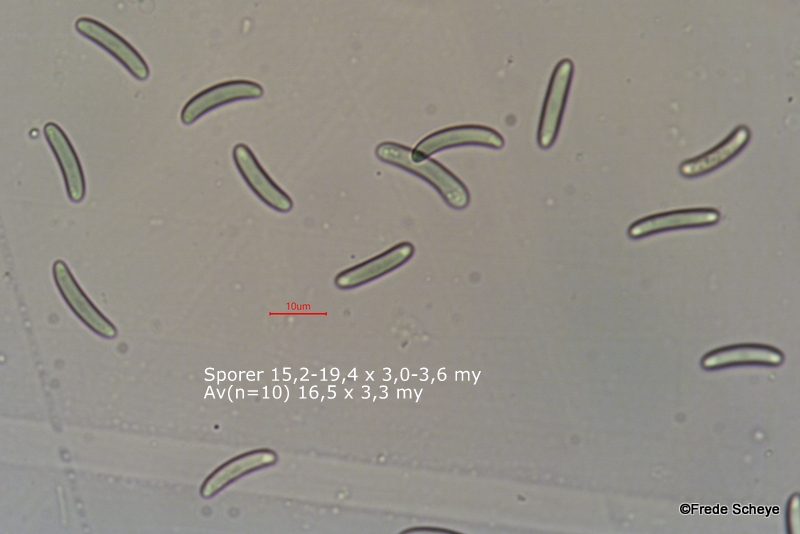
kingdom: Fungi
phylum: Ascomycota
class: Sordariomycetes
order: Xylariales
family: Diatrypaceae
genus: Eutypella
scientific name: Eutypella quaternata
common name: bøge-korsprik
